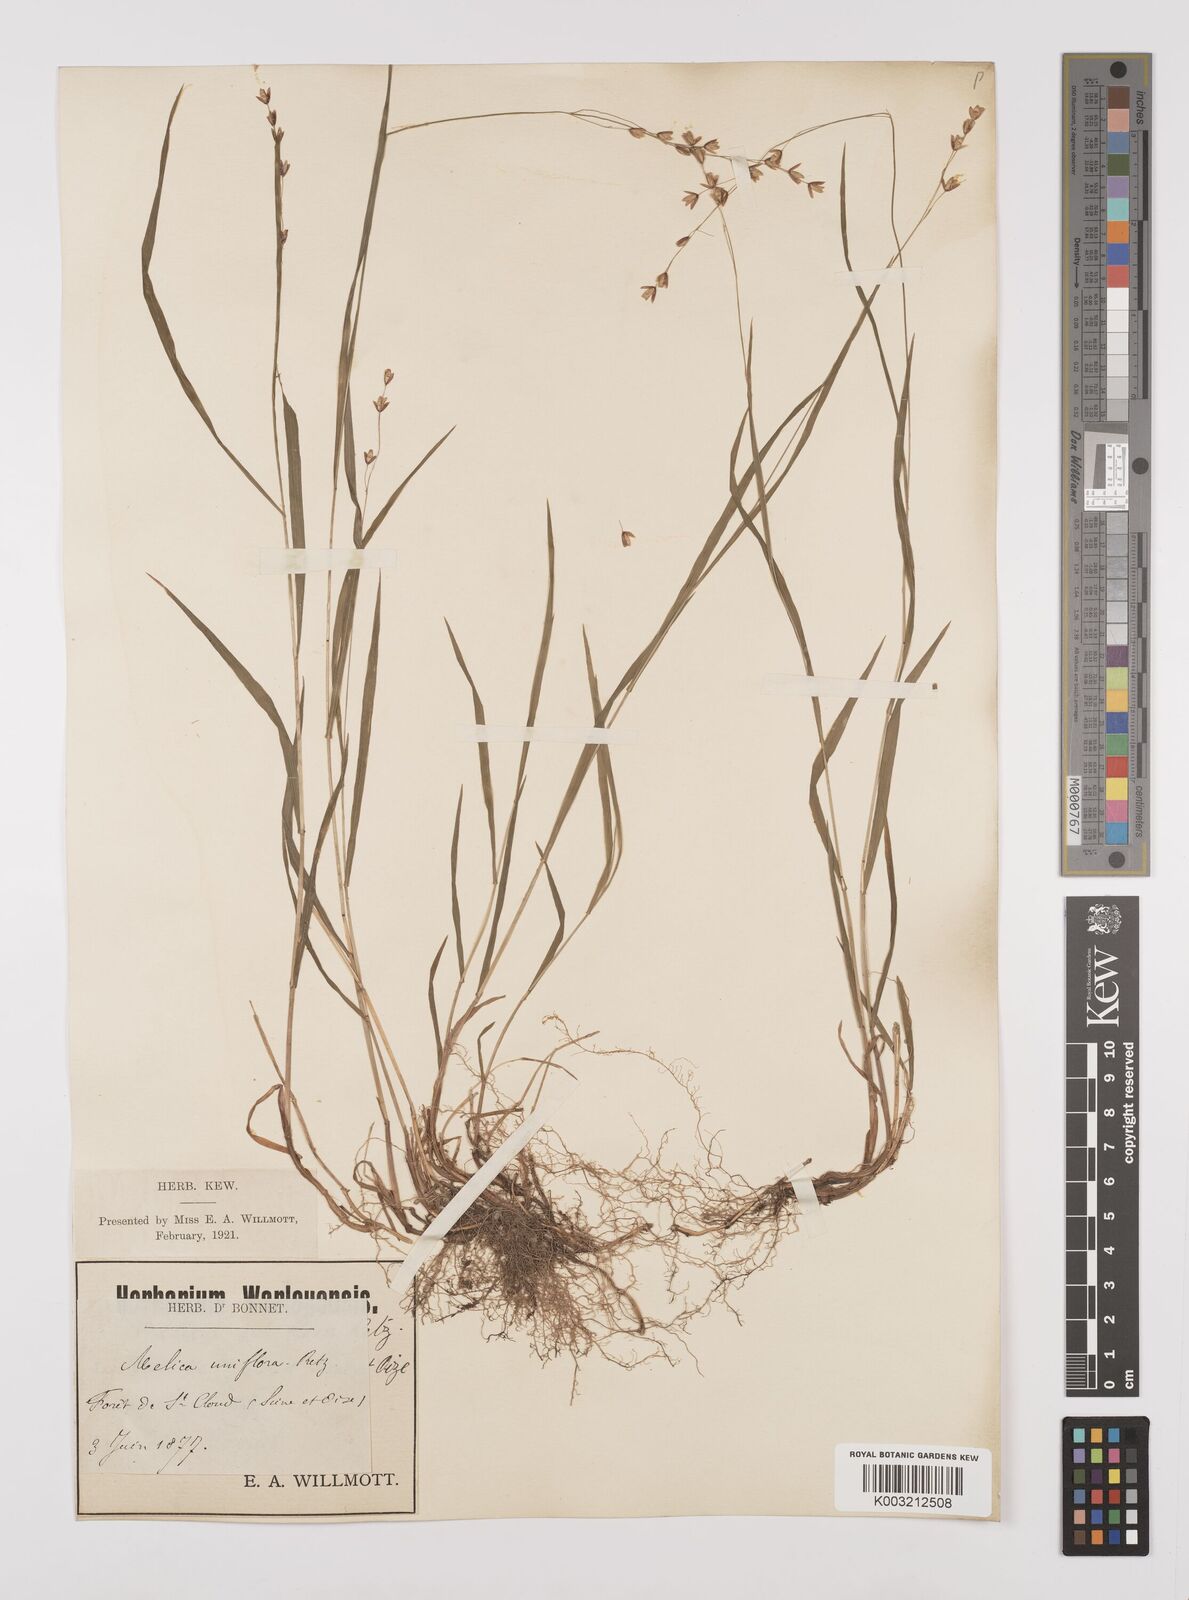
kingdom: Plantae
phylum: Tracheophyta
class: Liliopsida
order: Poales
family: Poaceae
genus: Melica
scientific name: Melica uniflora
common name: Wood melick
